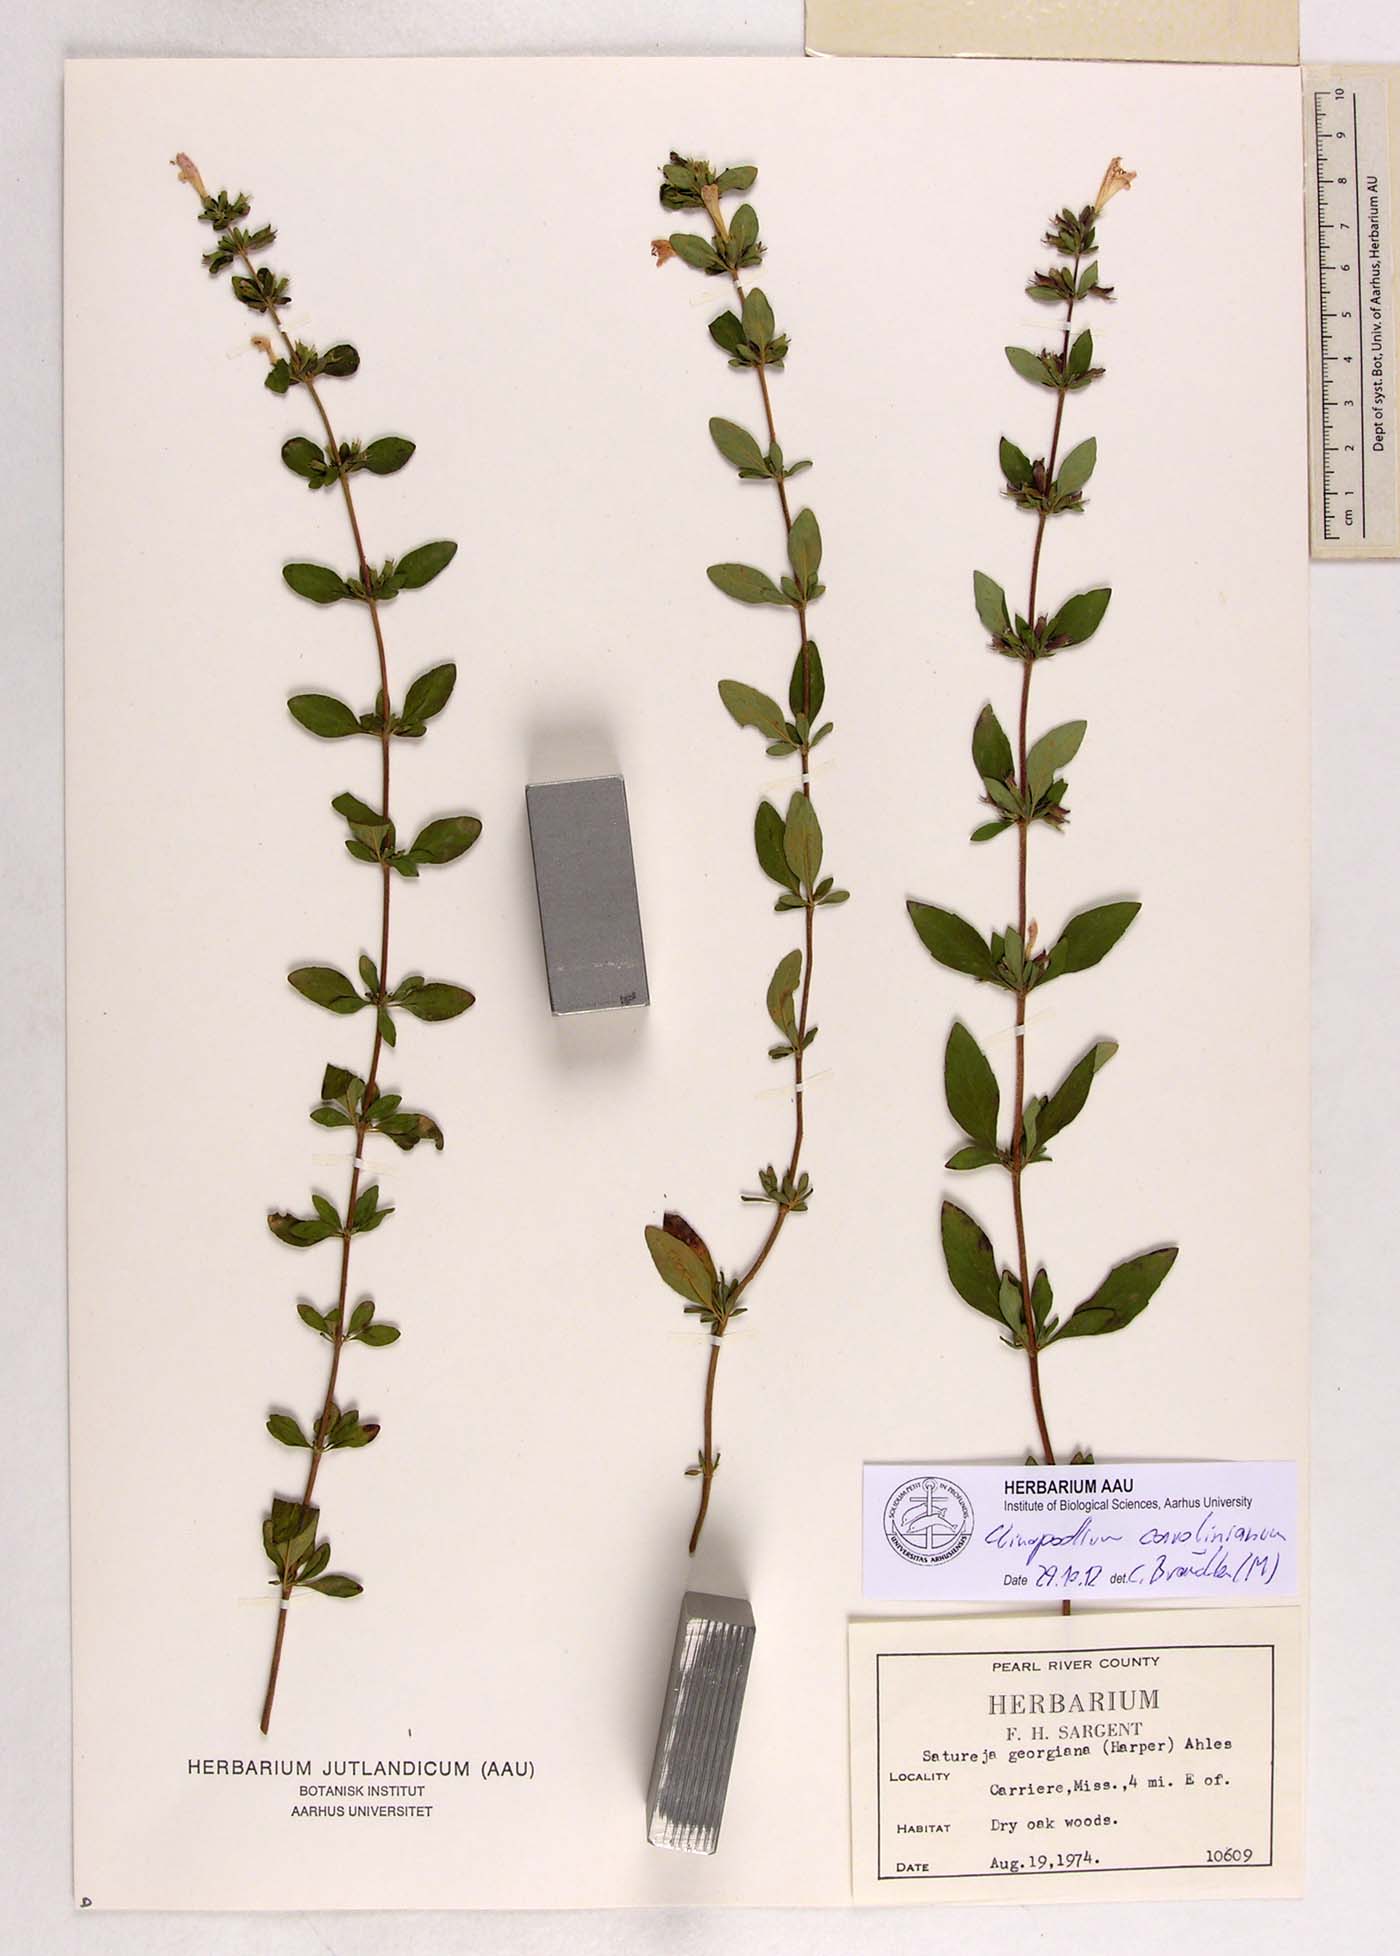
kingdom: Plantae
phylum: Tracheophyta
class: Magnoliopsida
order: Lamiales
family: Lamiaceae
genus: Clinopodium
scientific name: Clinopodium carolinianum
